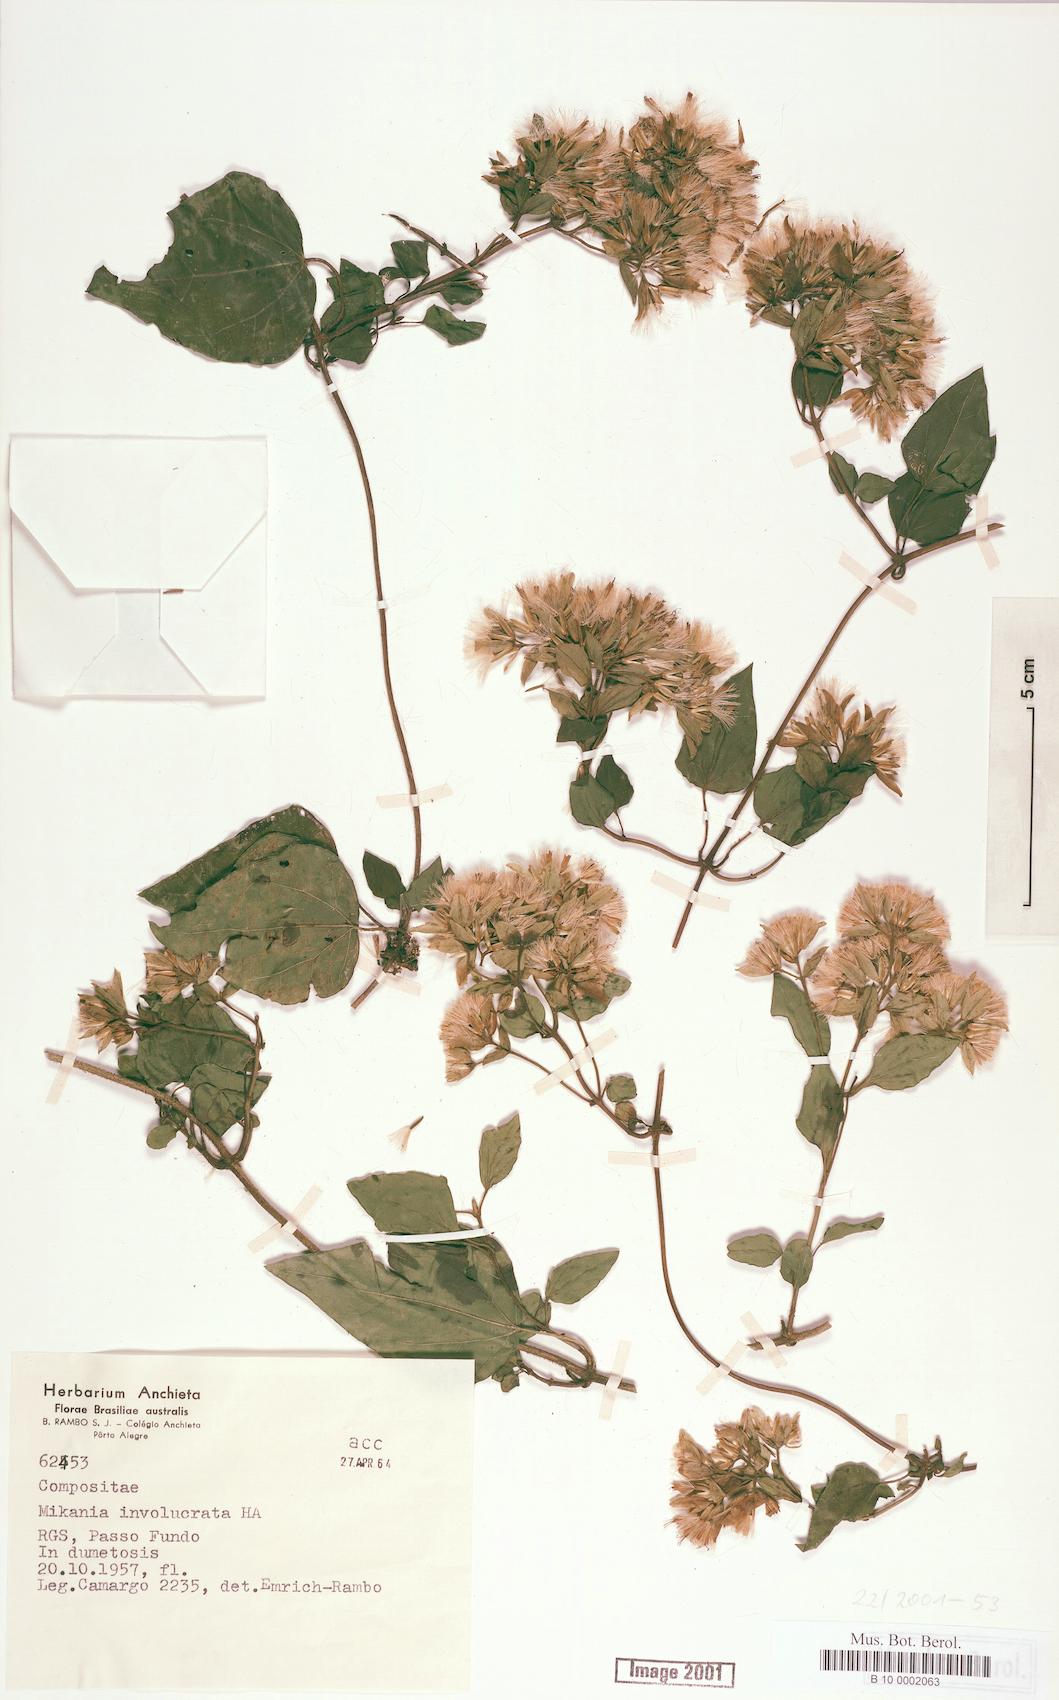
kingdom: Plantae
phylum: Tracheophyta
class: Magnoliopsida
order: Asterales
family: Asteraceae
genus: Mikania
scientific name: Mikania involucrata
